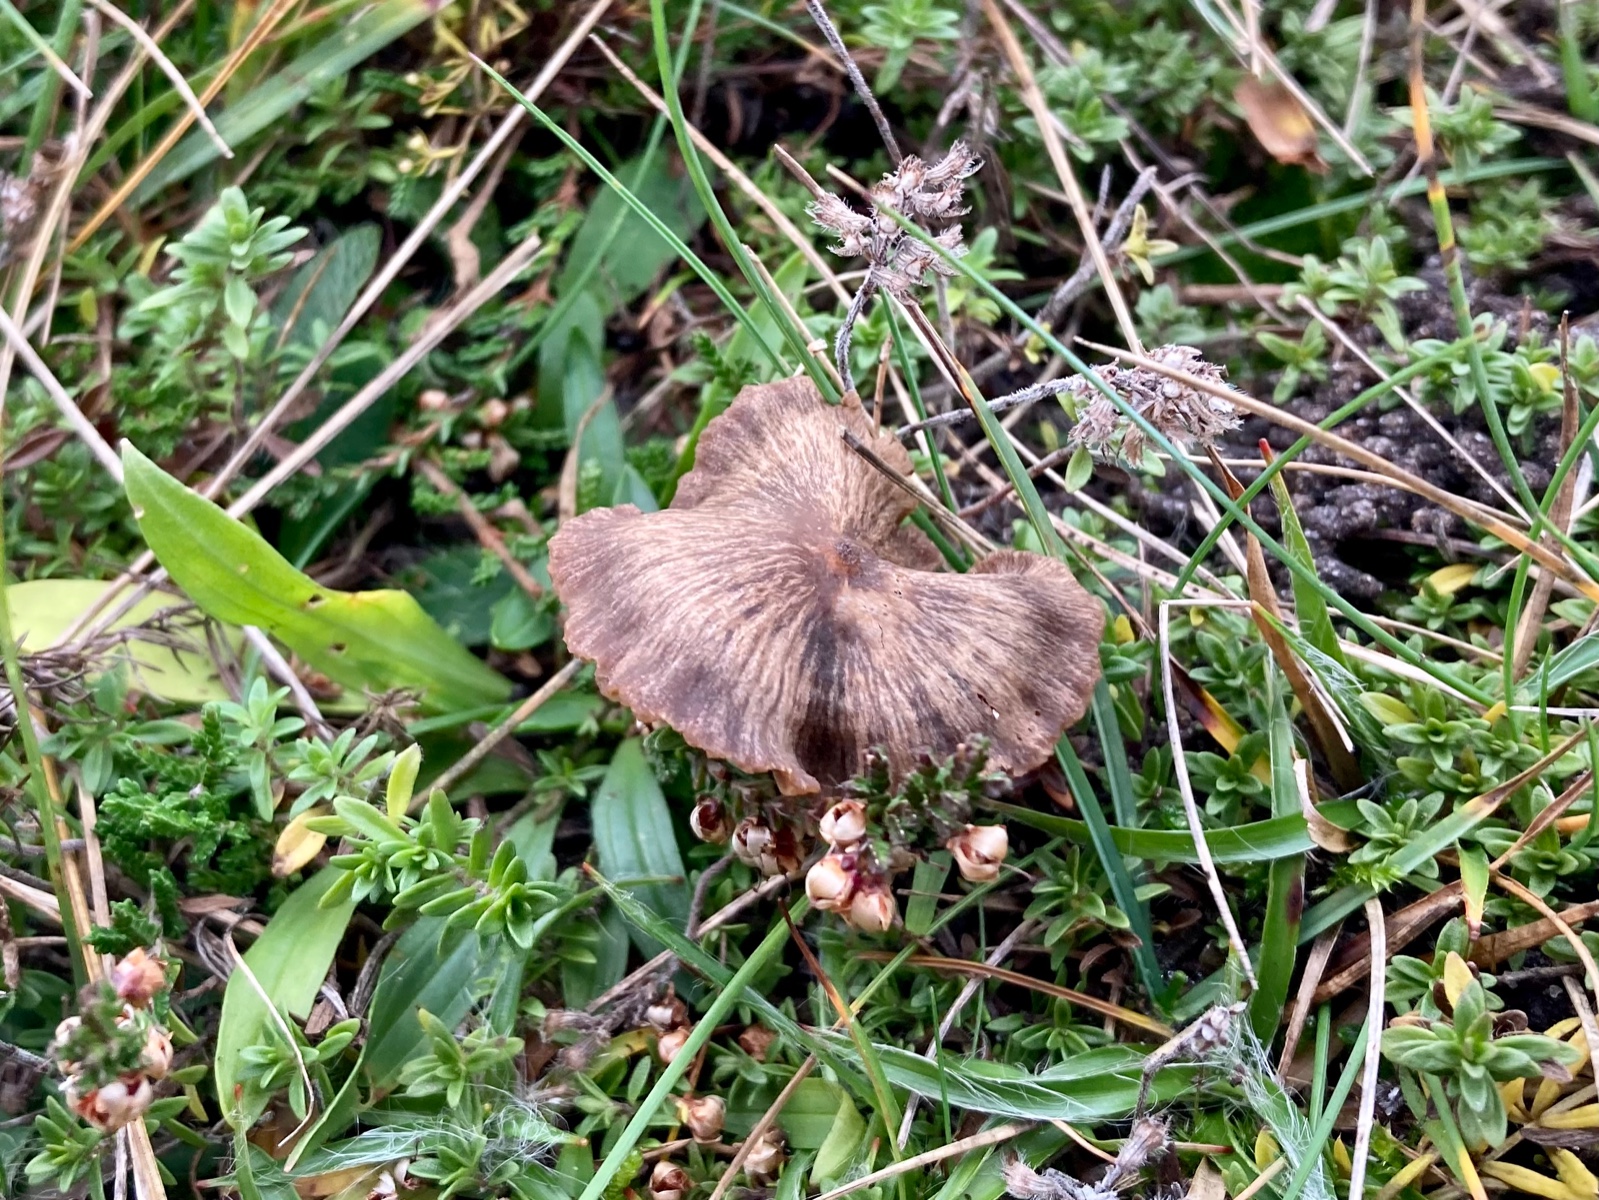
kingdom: Fungi
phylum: Basidiomycota
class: Agaricomycetes
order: Agaricales
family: Entolomataceae
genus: Entoloma
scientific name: Entoloma
